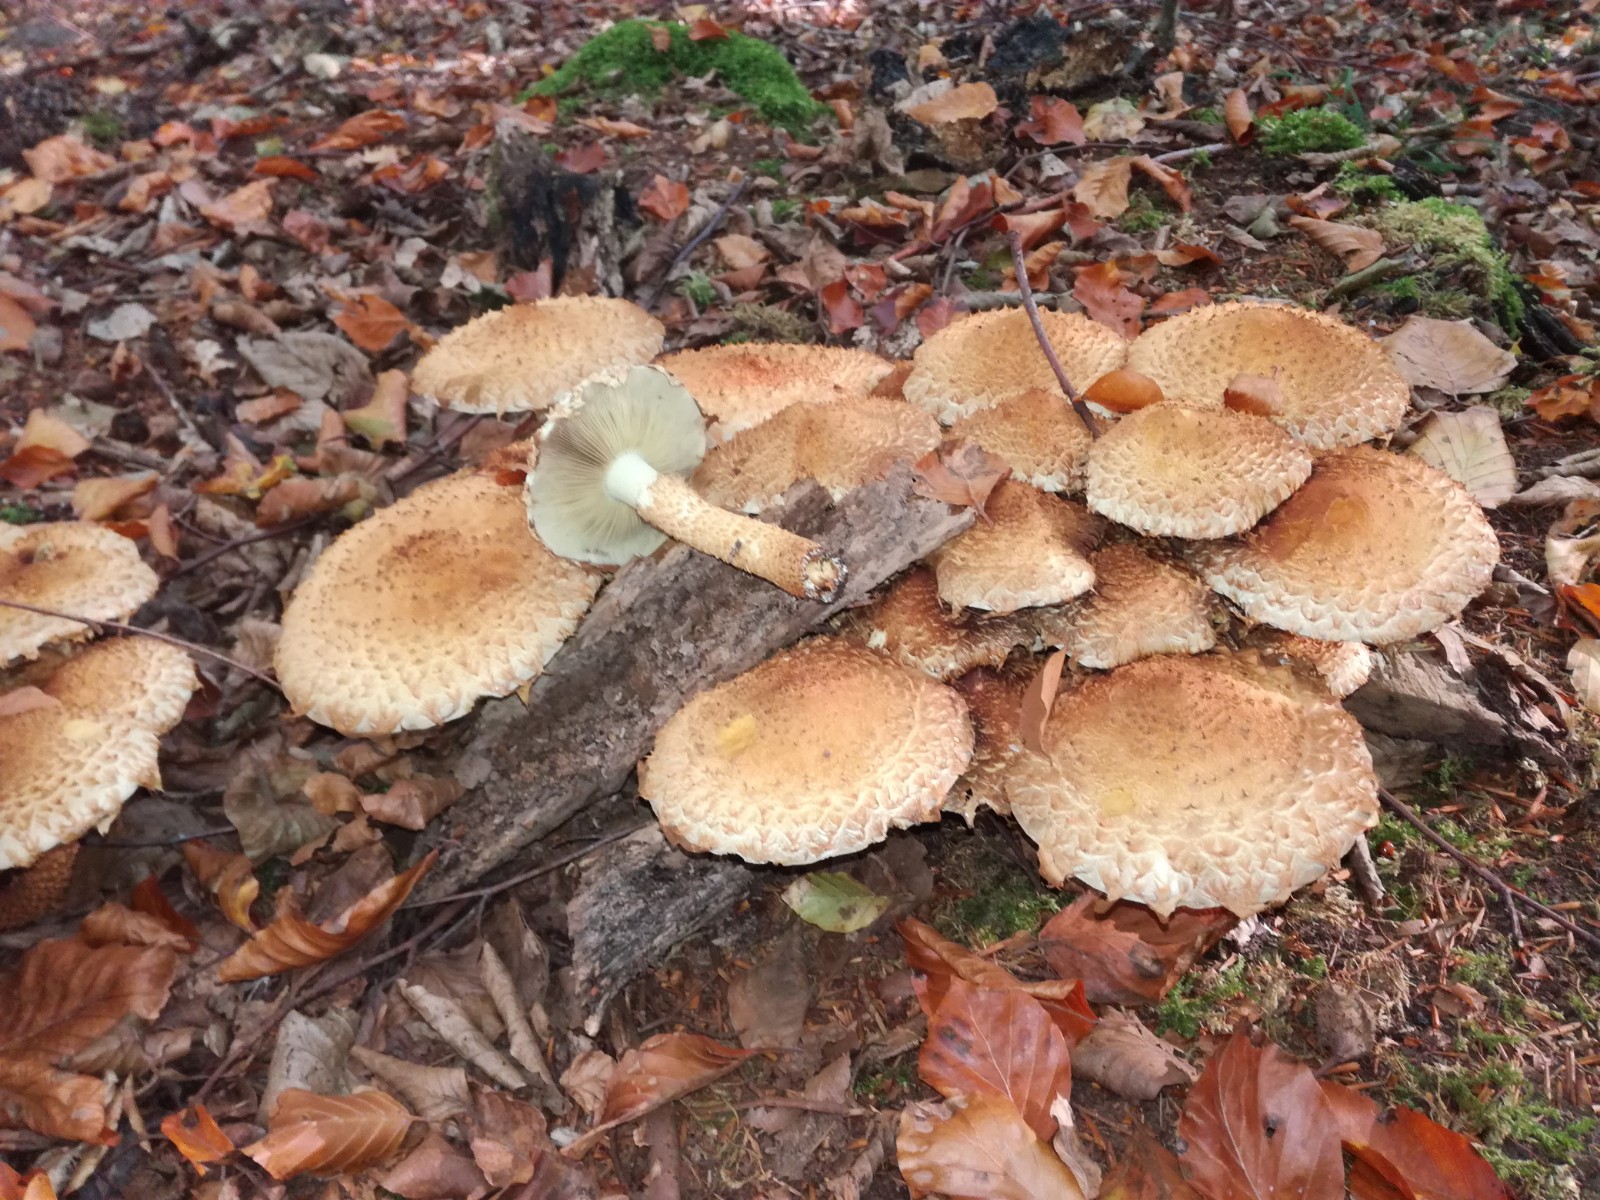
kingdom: Fungi
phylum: Basidiomycota
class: Agaricomycetes
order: Agaricales
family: Strophariaceae
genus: Pholiota
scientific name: Pholiota squarrosa
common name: krumskællet skælhat
